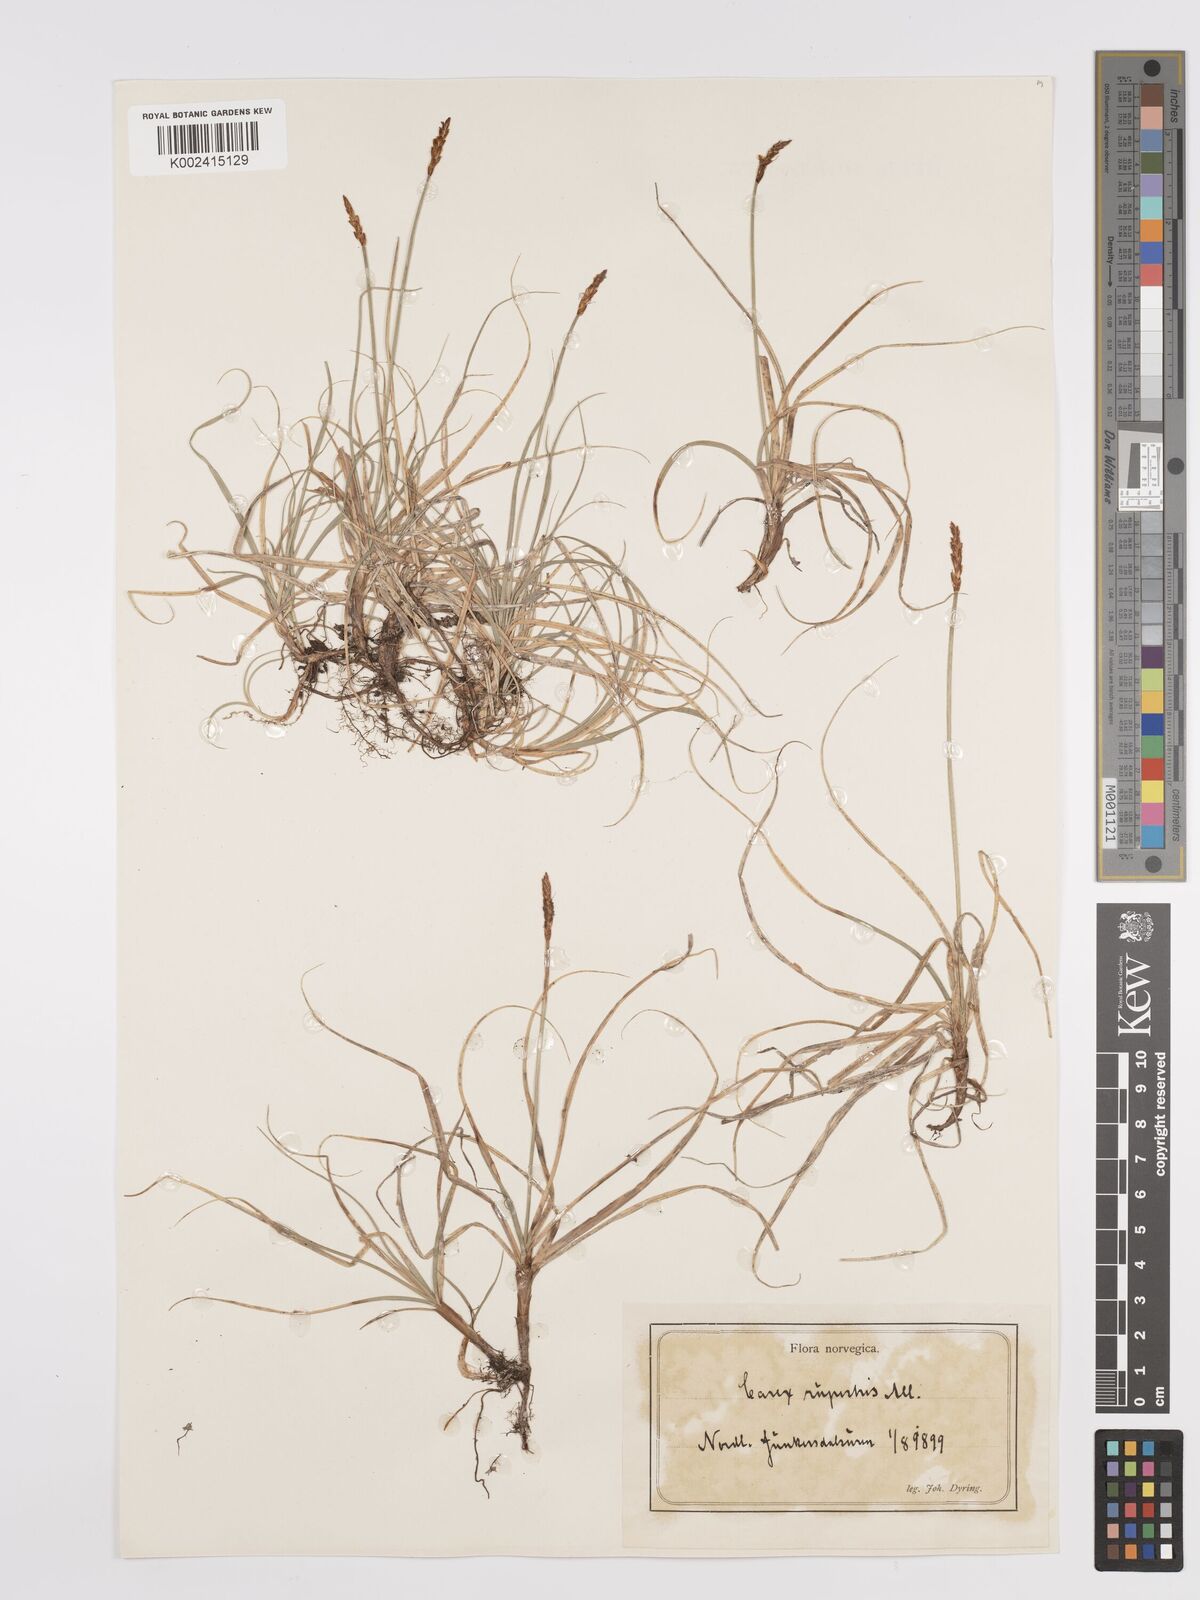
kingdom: Plantae
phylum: Tracheophyta
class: Liliopsida
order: Poales
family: Cyperaceae
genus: Carex
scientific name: Carex rupestris
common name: Rock sedge
